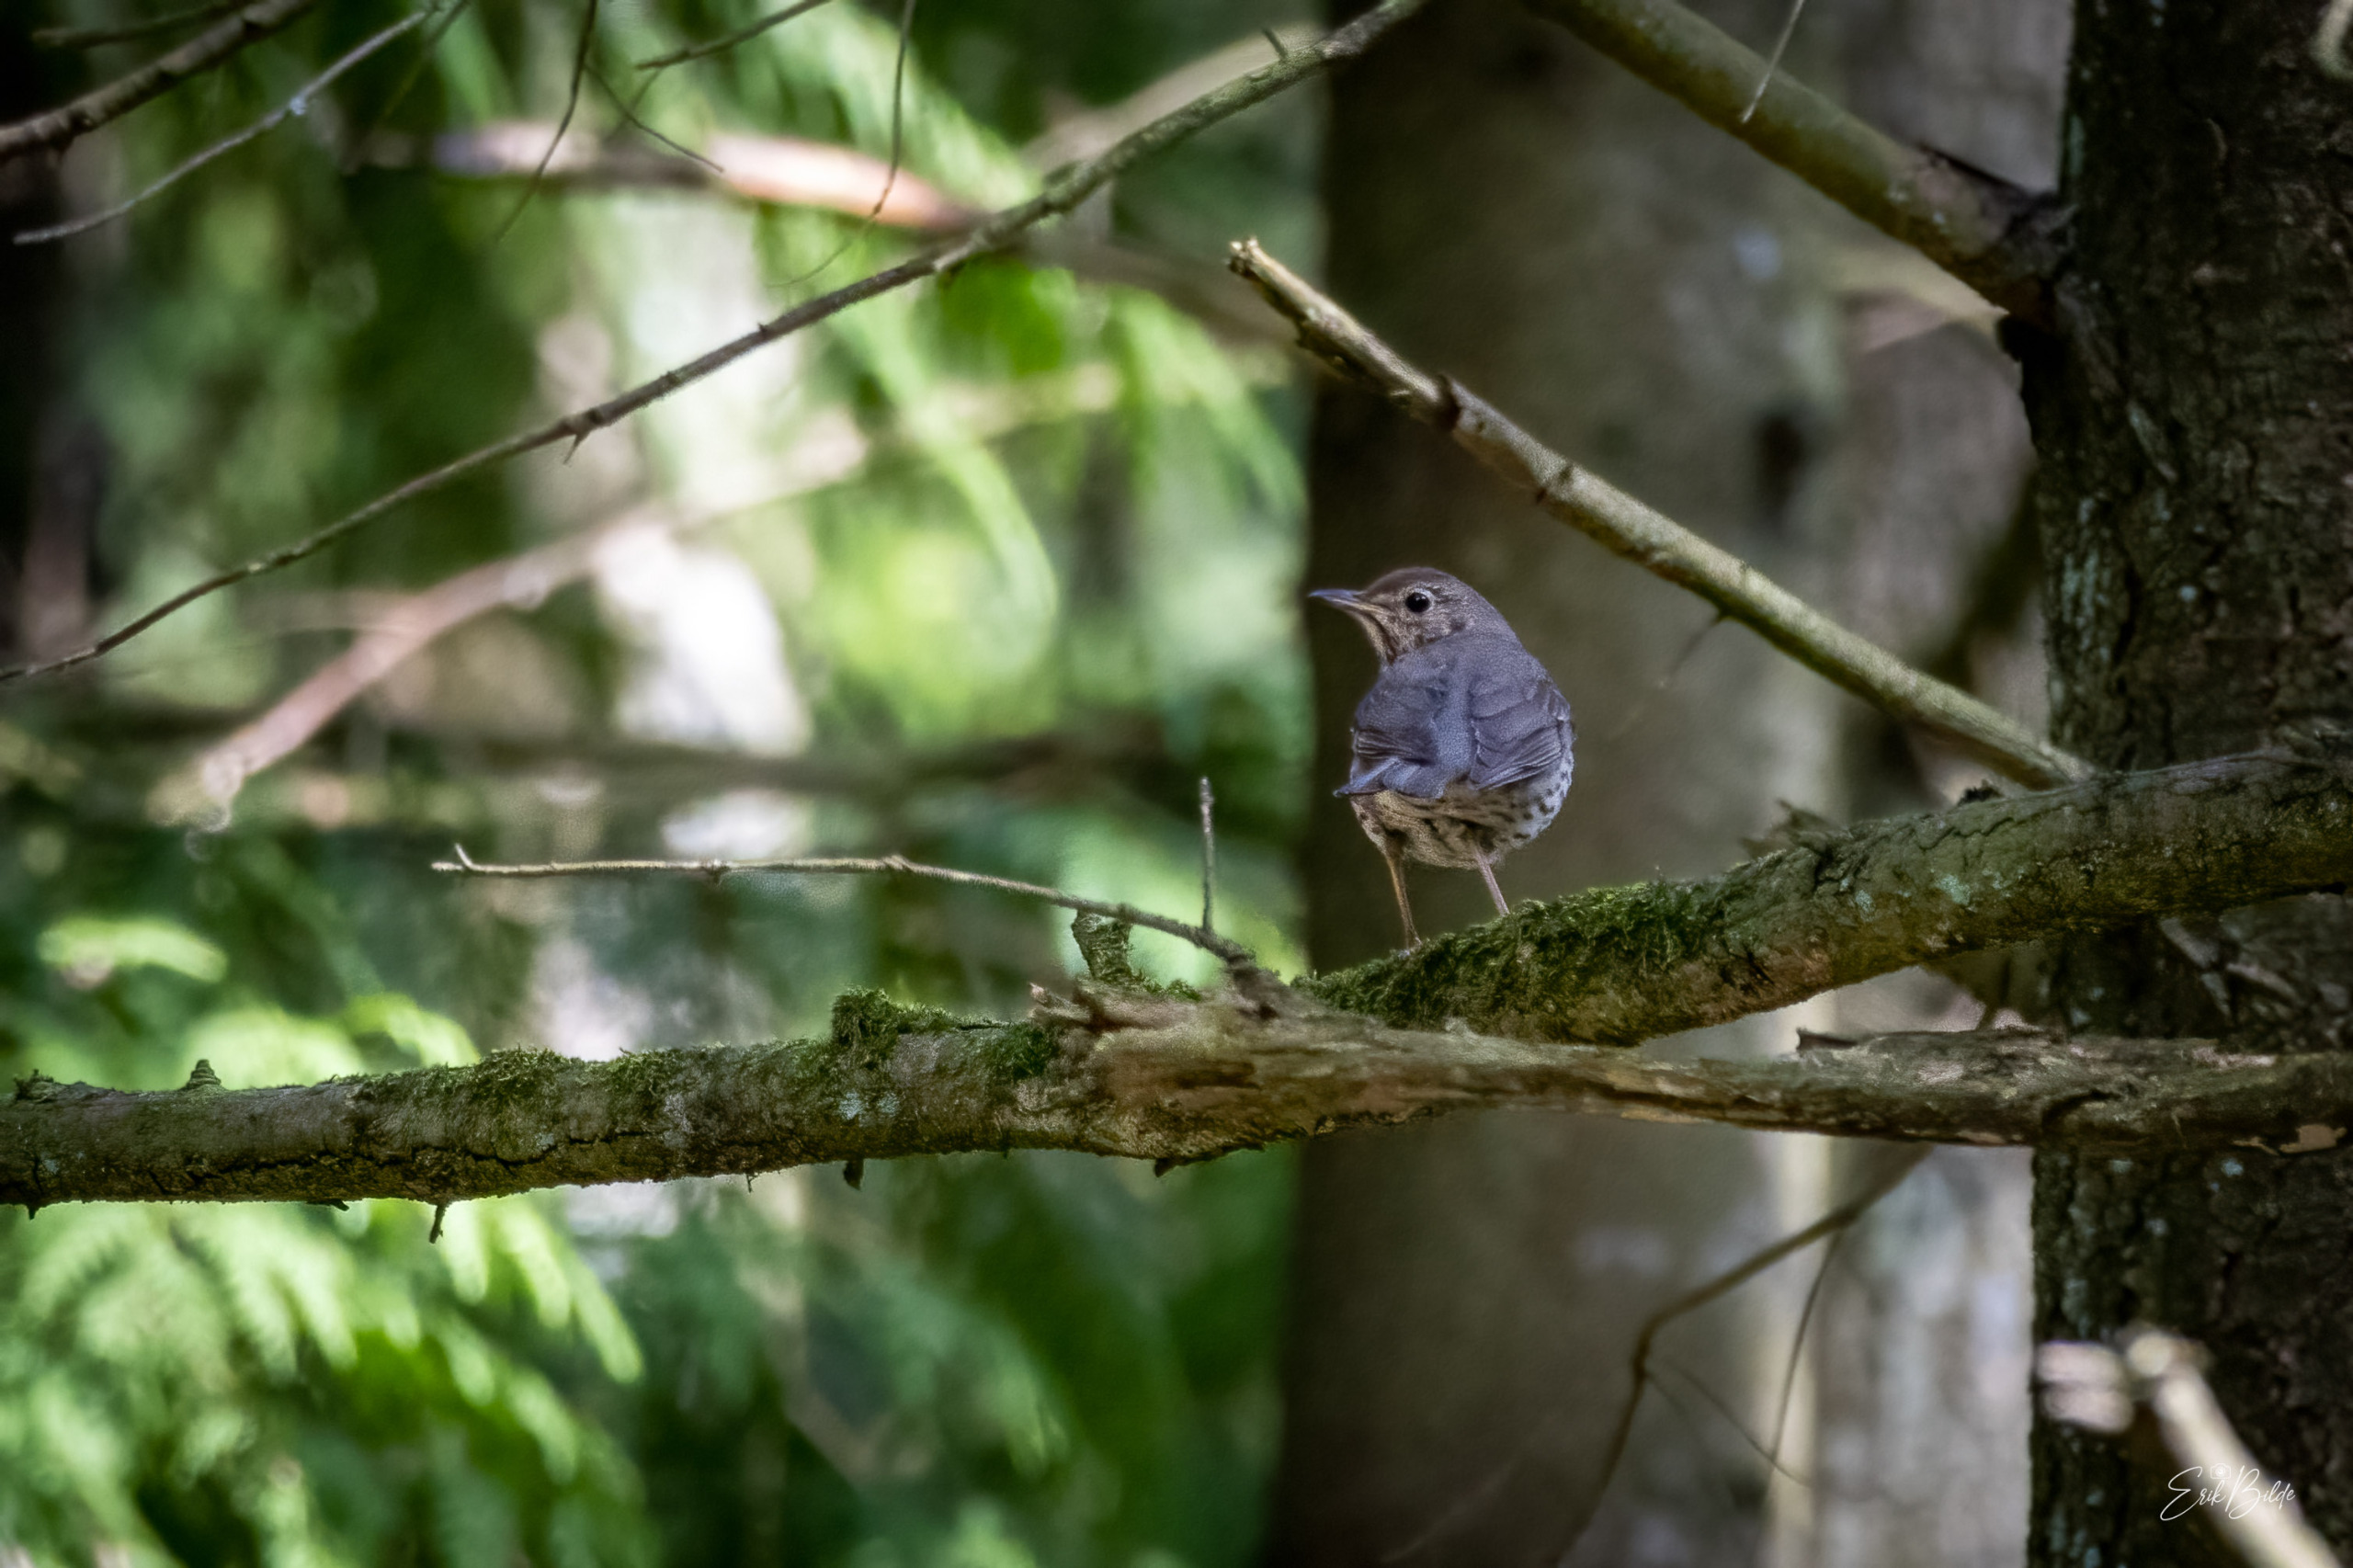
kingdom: Animalia
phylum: Chordata
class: Aves
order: Passeriformes
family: Turdidae
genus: Turdus
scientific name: Turdus philomelos
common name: Sangdrossel
